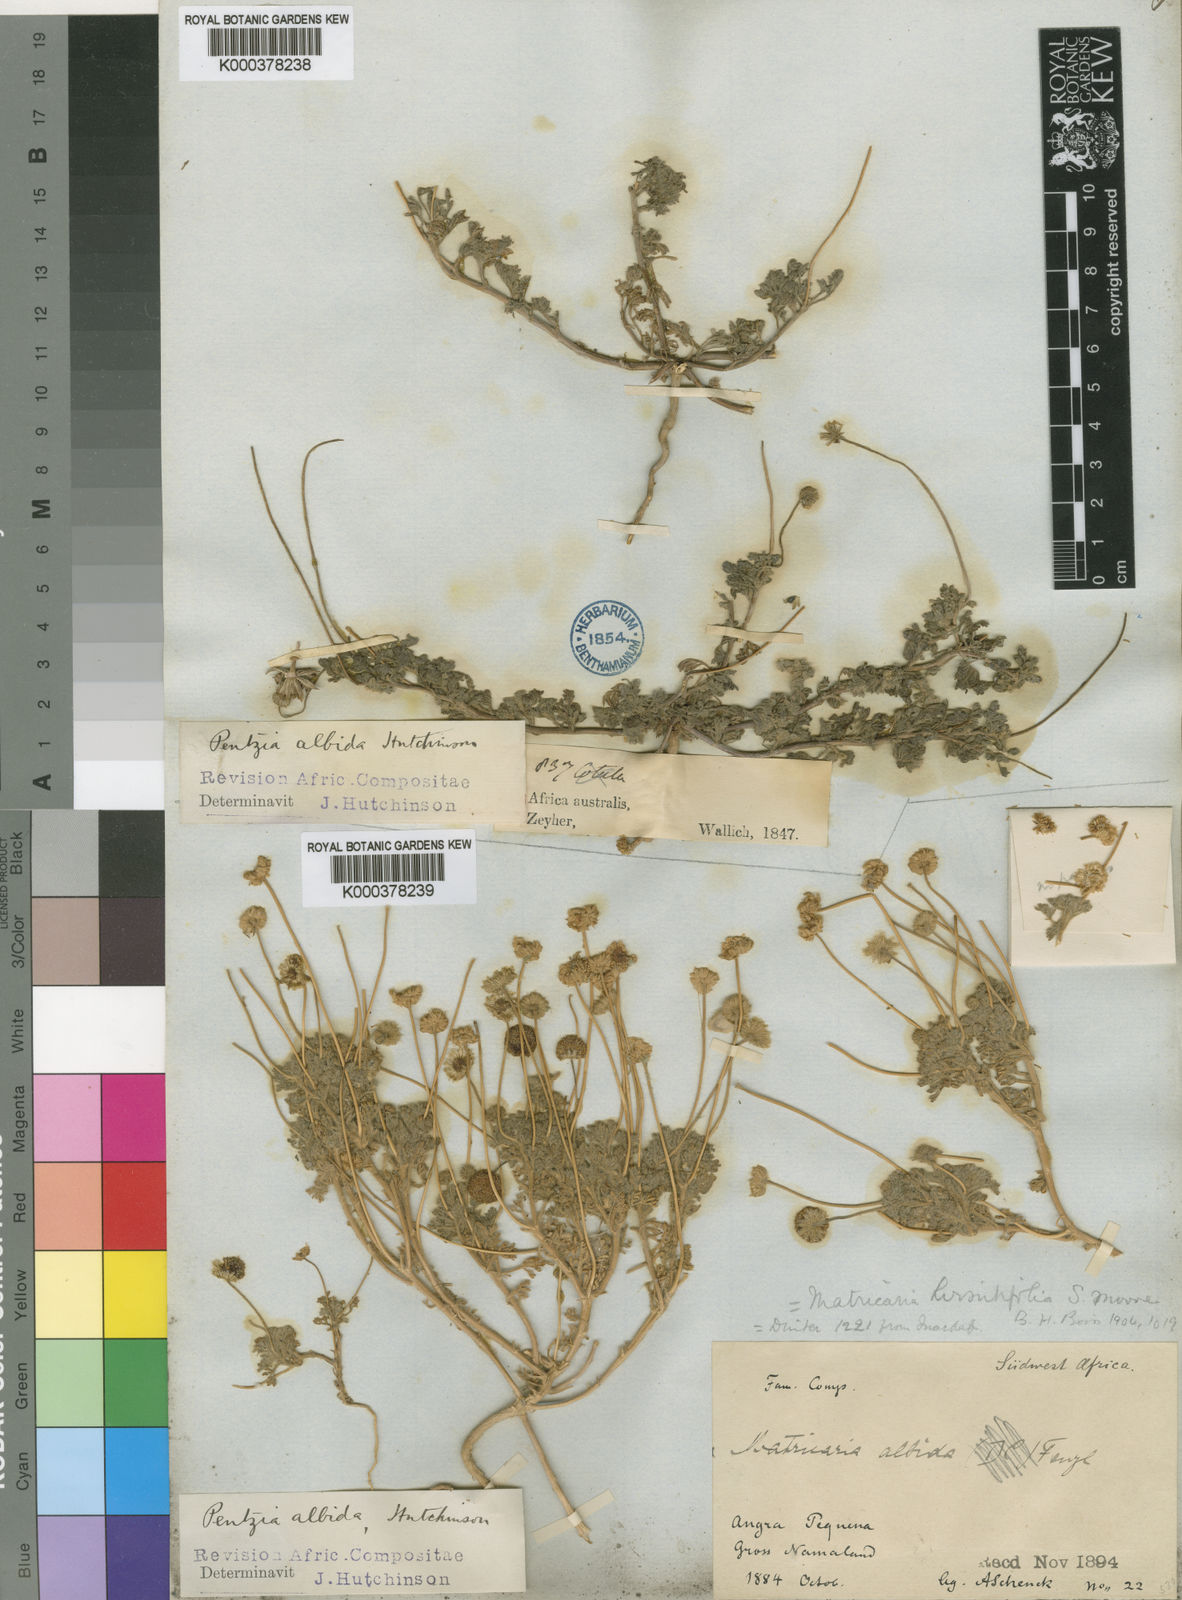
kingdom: Plantae
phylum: Tracheophyta
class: Magnoliopsida
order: Asterales
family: Asteraceae
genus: Foveolina
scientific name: Foveolina
